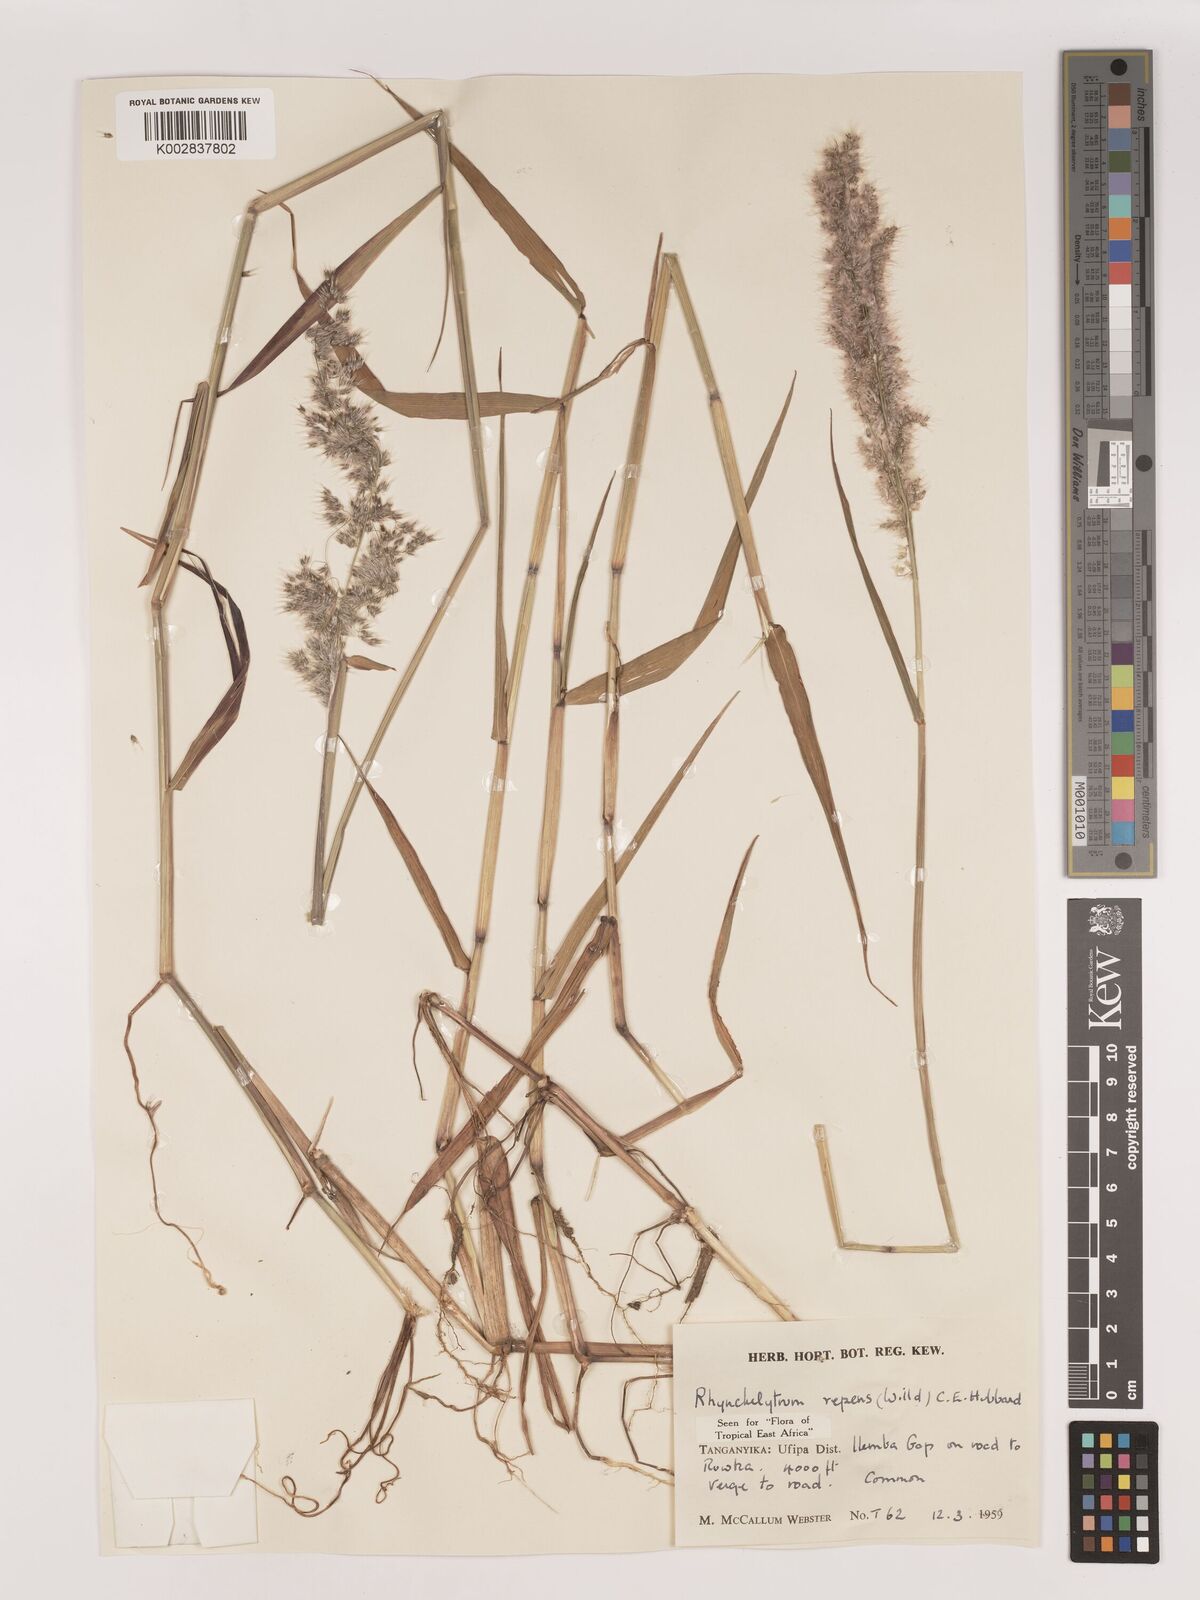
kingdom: Plantae
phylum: Tracheophyta
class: Liliopsida
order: Poales
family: Poaceae
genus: Melinis
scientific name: Melinis repens
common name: Rose natal grass
